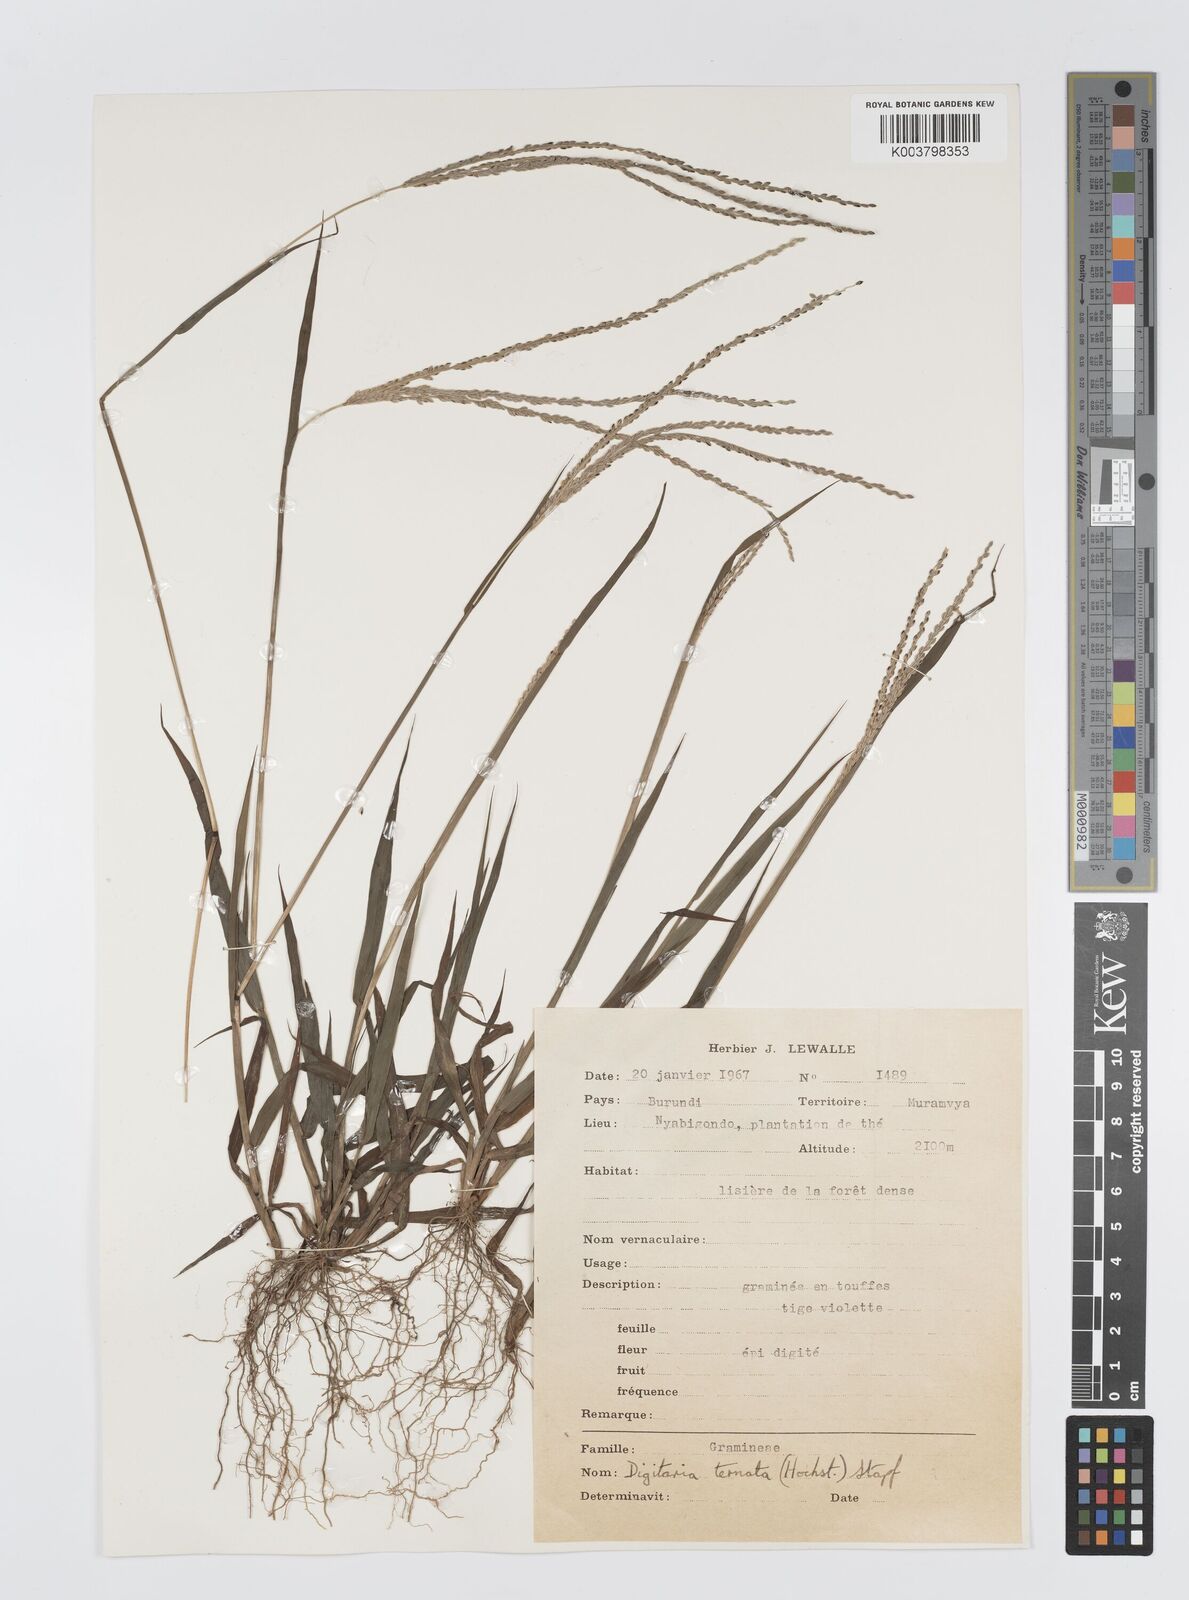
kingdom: Plantae
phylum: Tracheophyta
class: Liliopsida
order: Poales
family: Poaceae
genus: Digitaria
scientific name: Digitaria ternata
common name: Blackseed crabgrass
